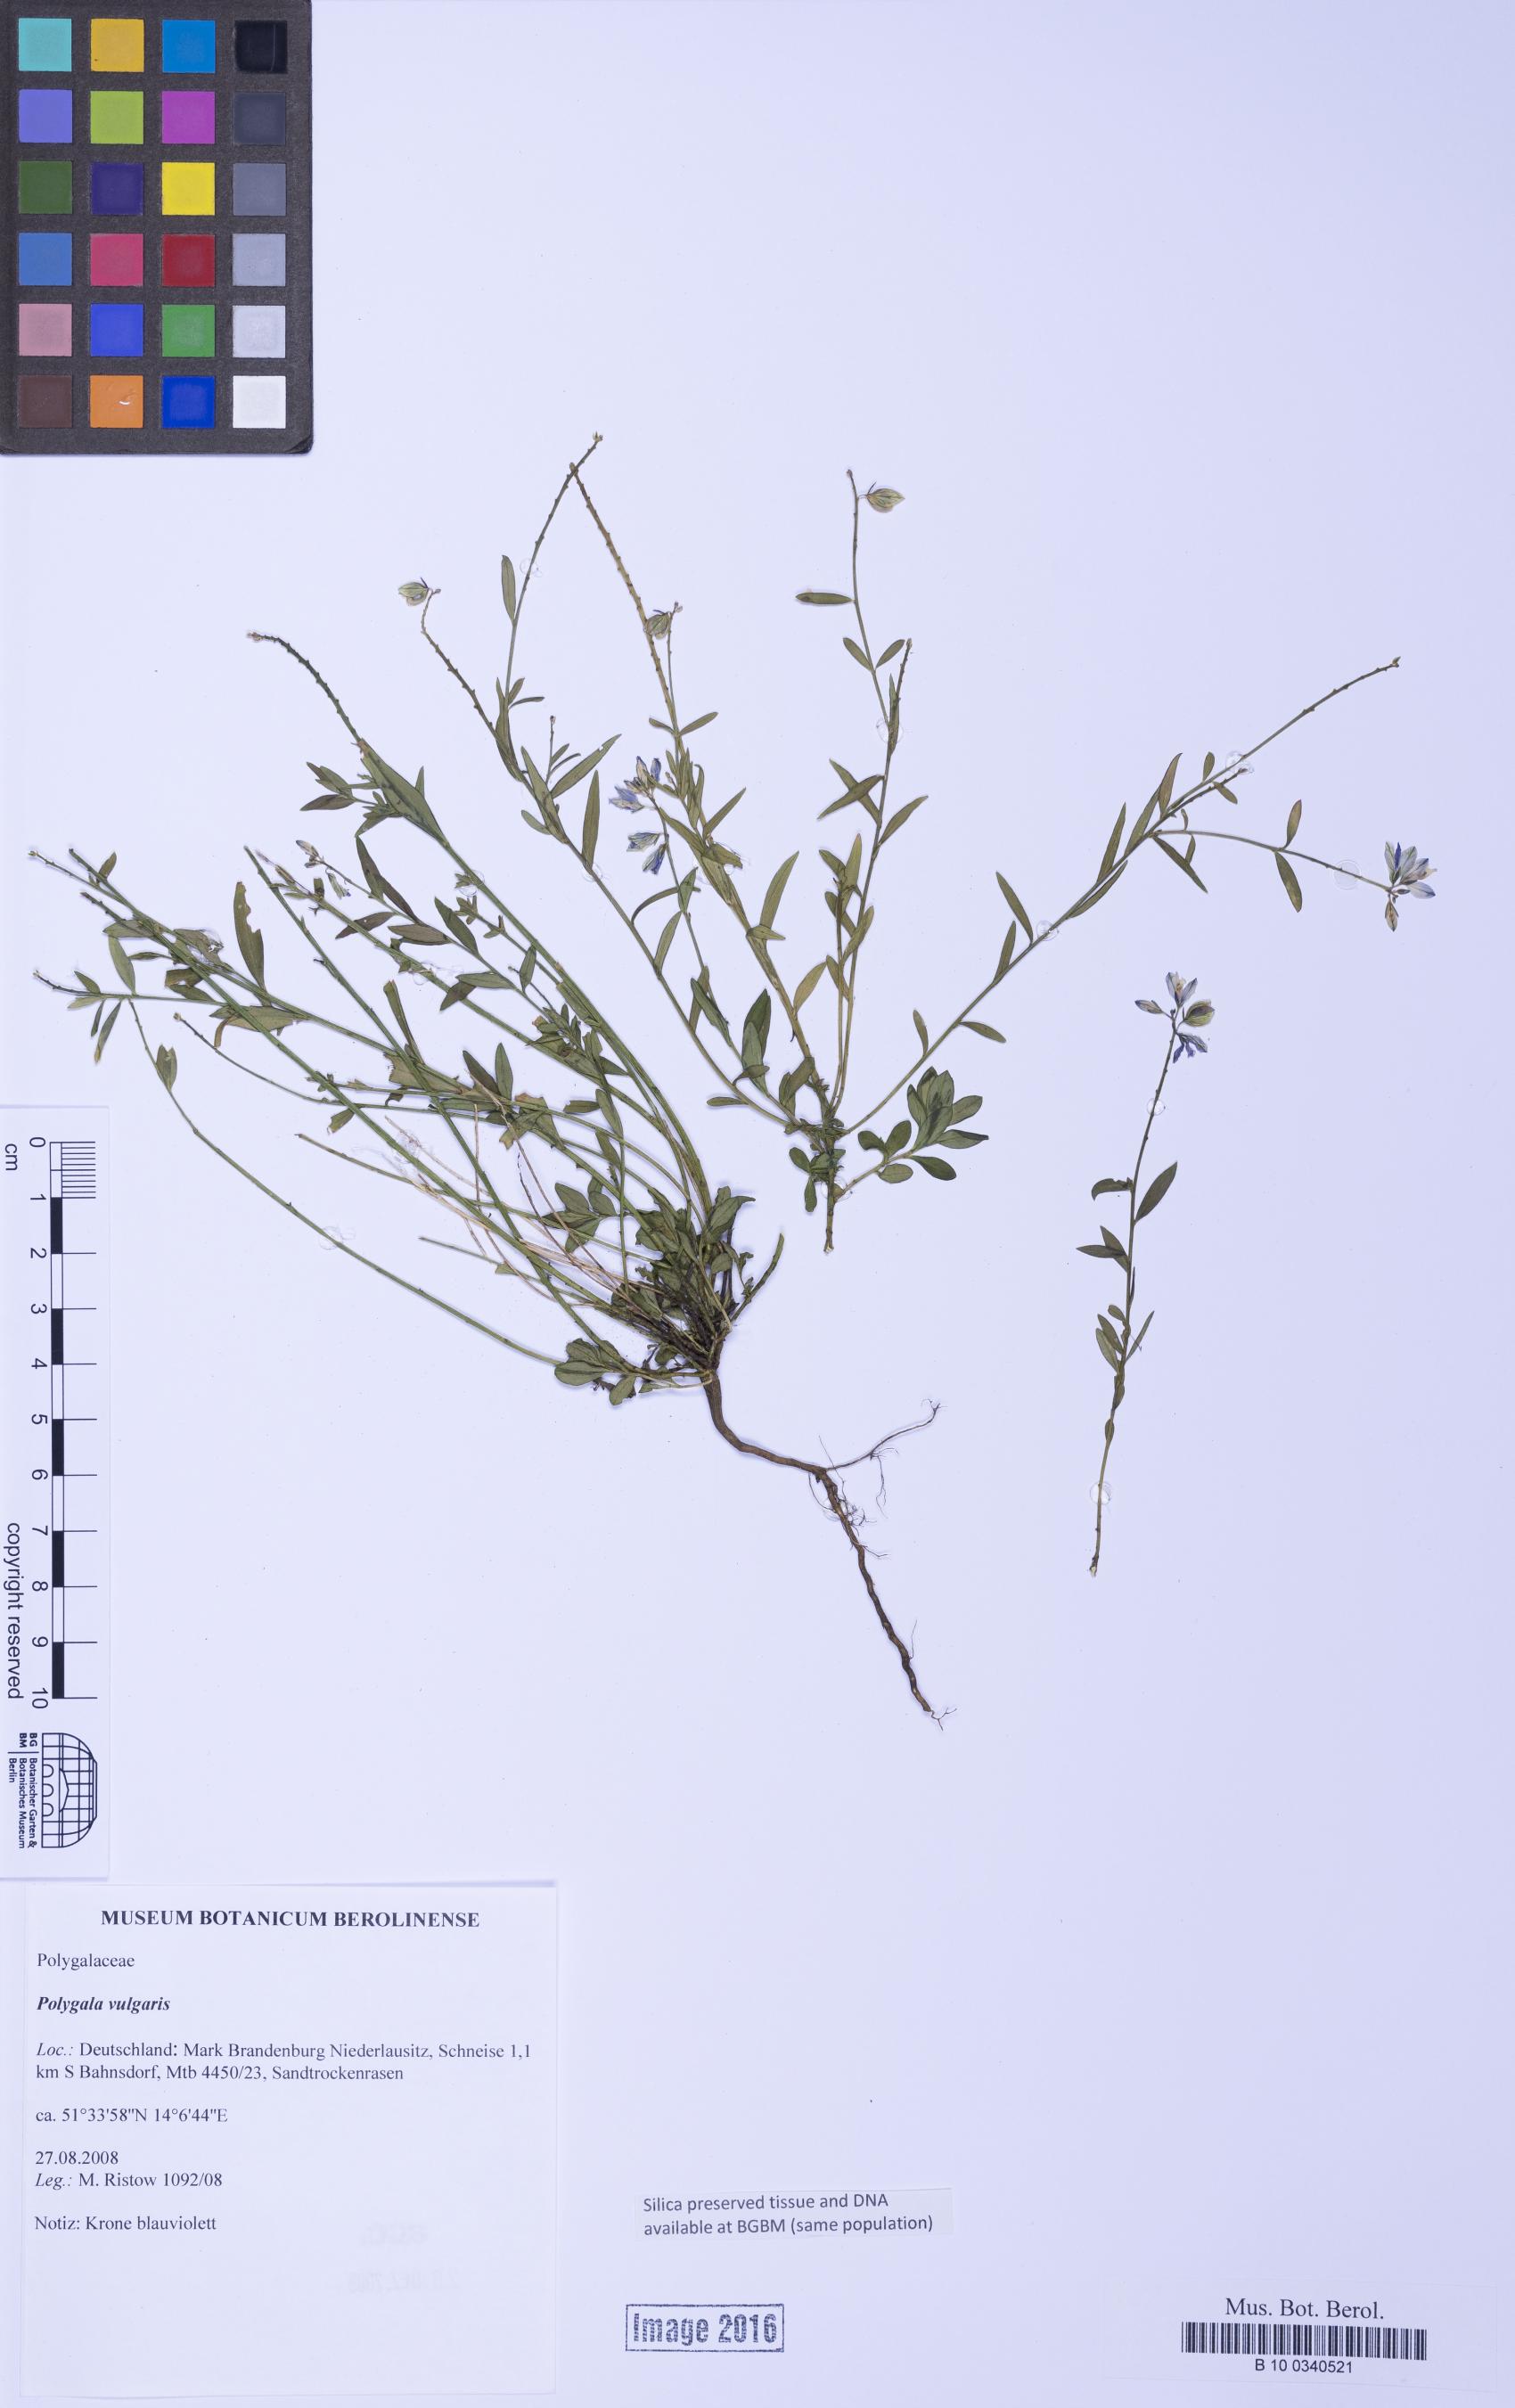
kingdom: Plantae
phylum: Tracheophyta
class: Magnoliopsida
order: Fabales
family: Polygalaceae
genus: Polygala
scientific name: Polygala vulgaris
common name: Common milkwort
